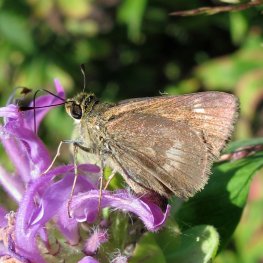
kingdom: Animalia
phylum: Arthropoda
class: Insecta
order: Lepidoptera
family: Hesperiidae
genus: Polites
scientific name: Polites
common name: Crossline Skipper
